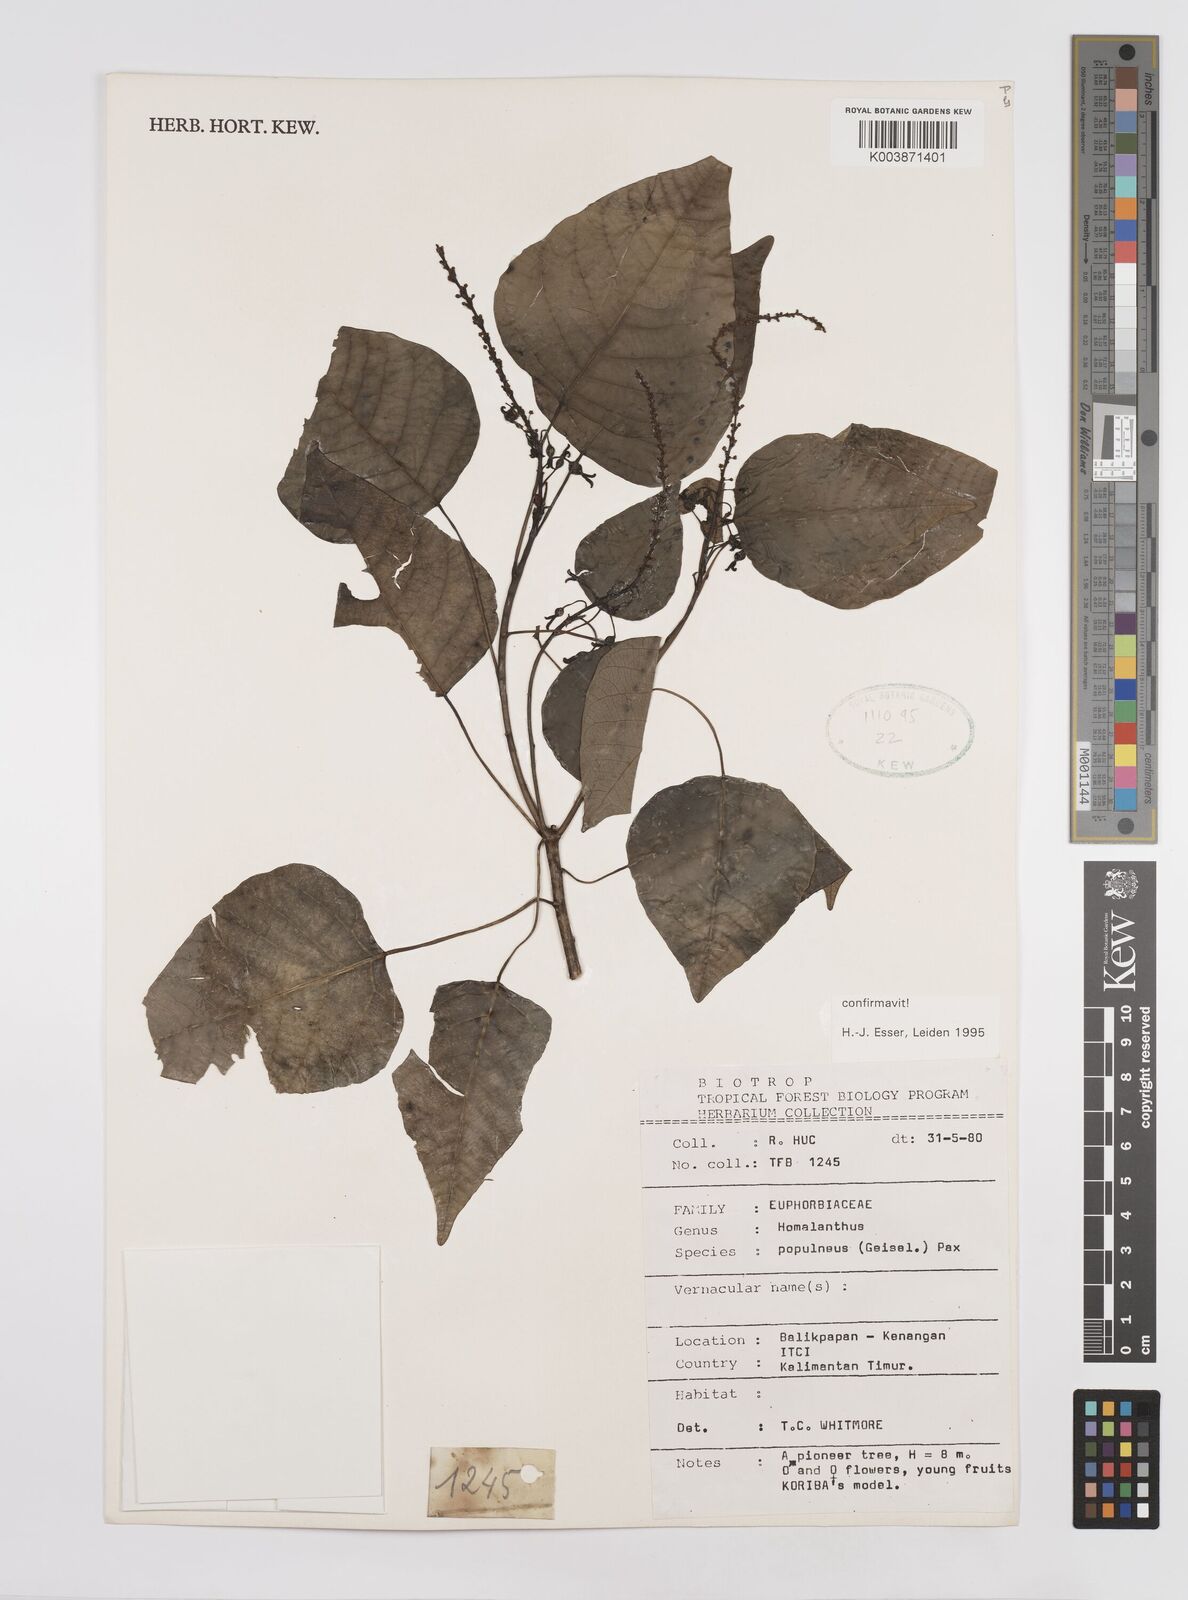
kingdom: Plantae
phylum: Tracheophyta
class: Magnoliopsida
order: Malpighiales
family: Euphorbiaceae
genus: Homalanthus
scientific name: Homalanthus populneus
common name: Spurge
